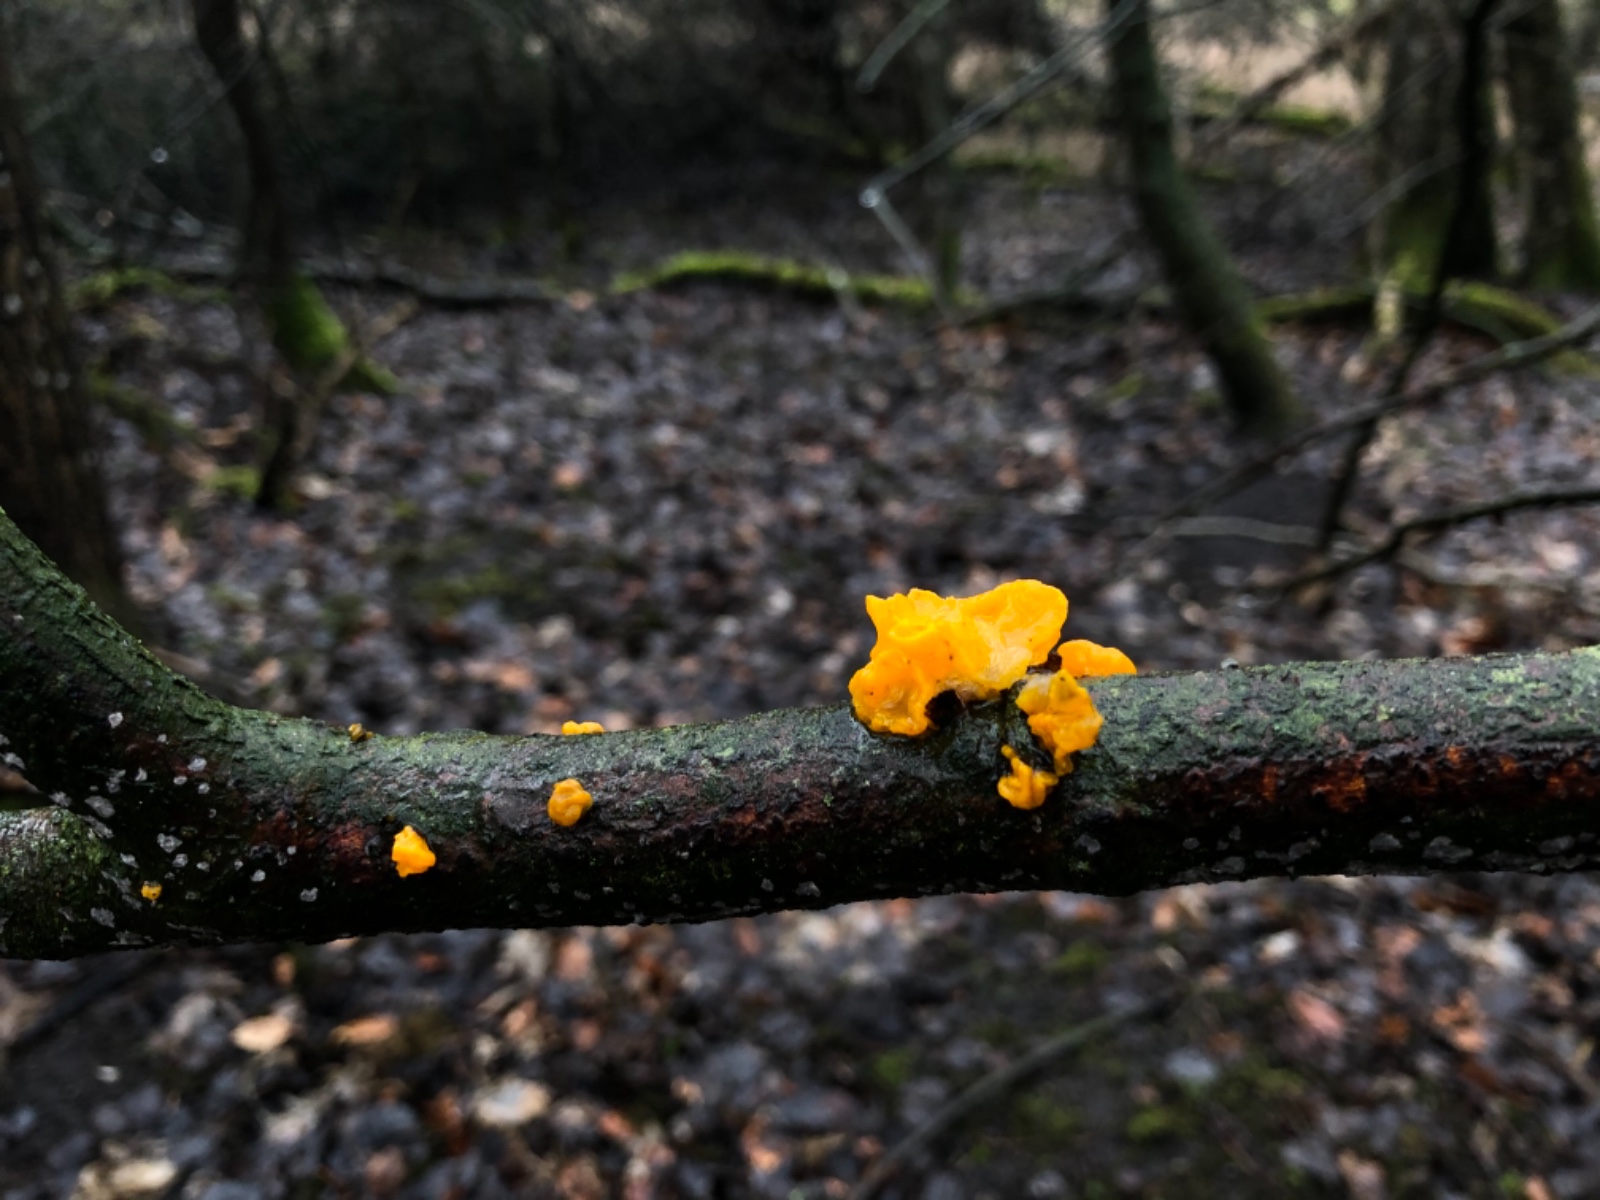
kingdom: Fungi
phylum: Basidiomycota
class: Tremellomycetes
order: Tremellales
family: Tremellaceae
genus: Tremella
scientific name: Tremella mesenterica
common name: gul bævresvamp
